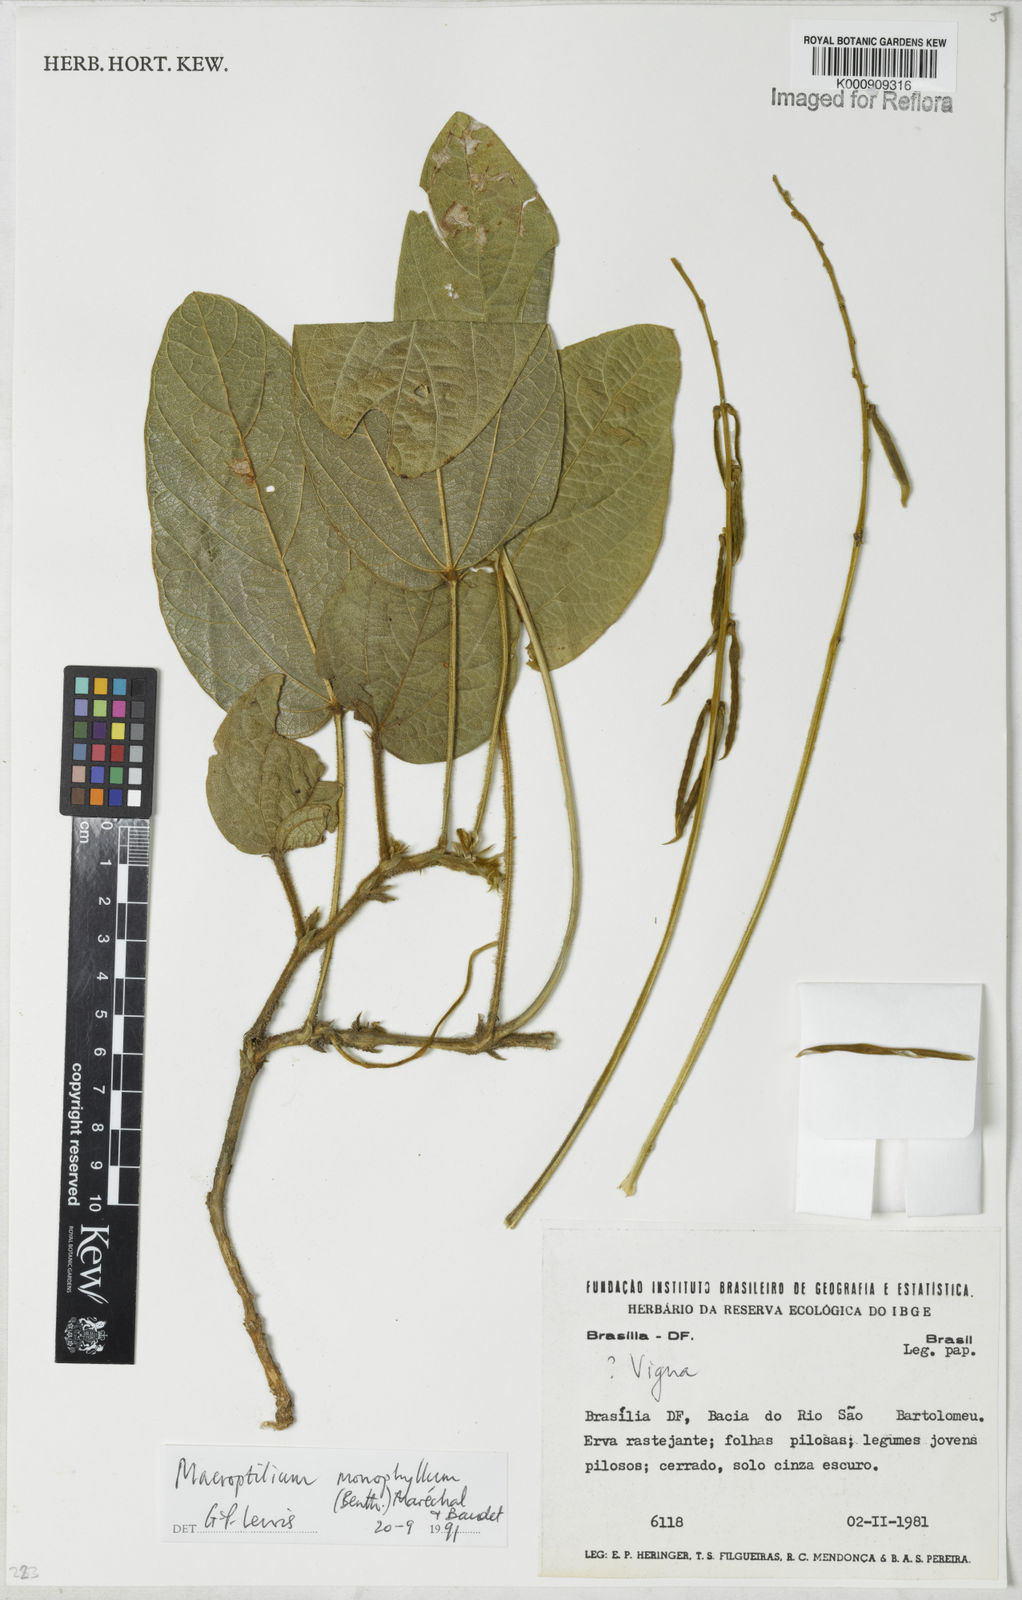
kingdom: Plantae
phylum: Tracheophyta
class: Magnoliopsida
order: Fabales
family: Fabaceae
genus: Macroptilium
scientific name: Macroptilium monophyllum
